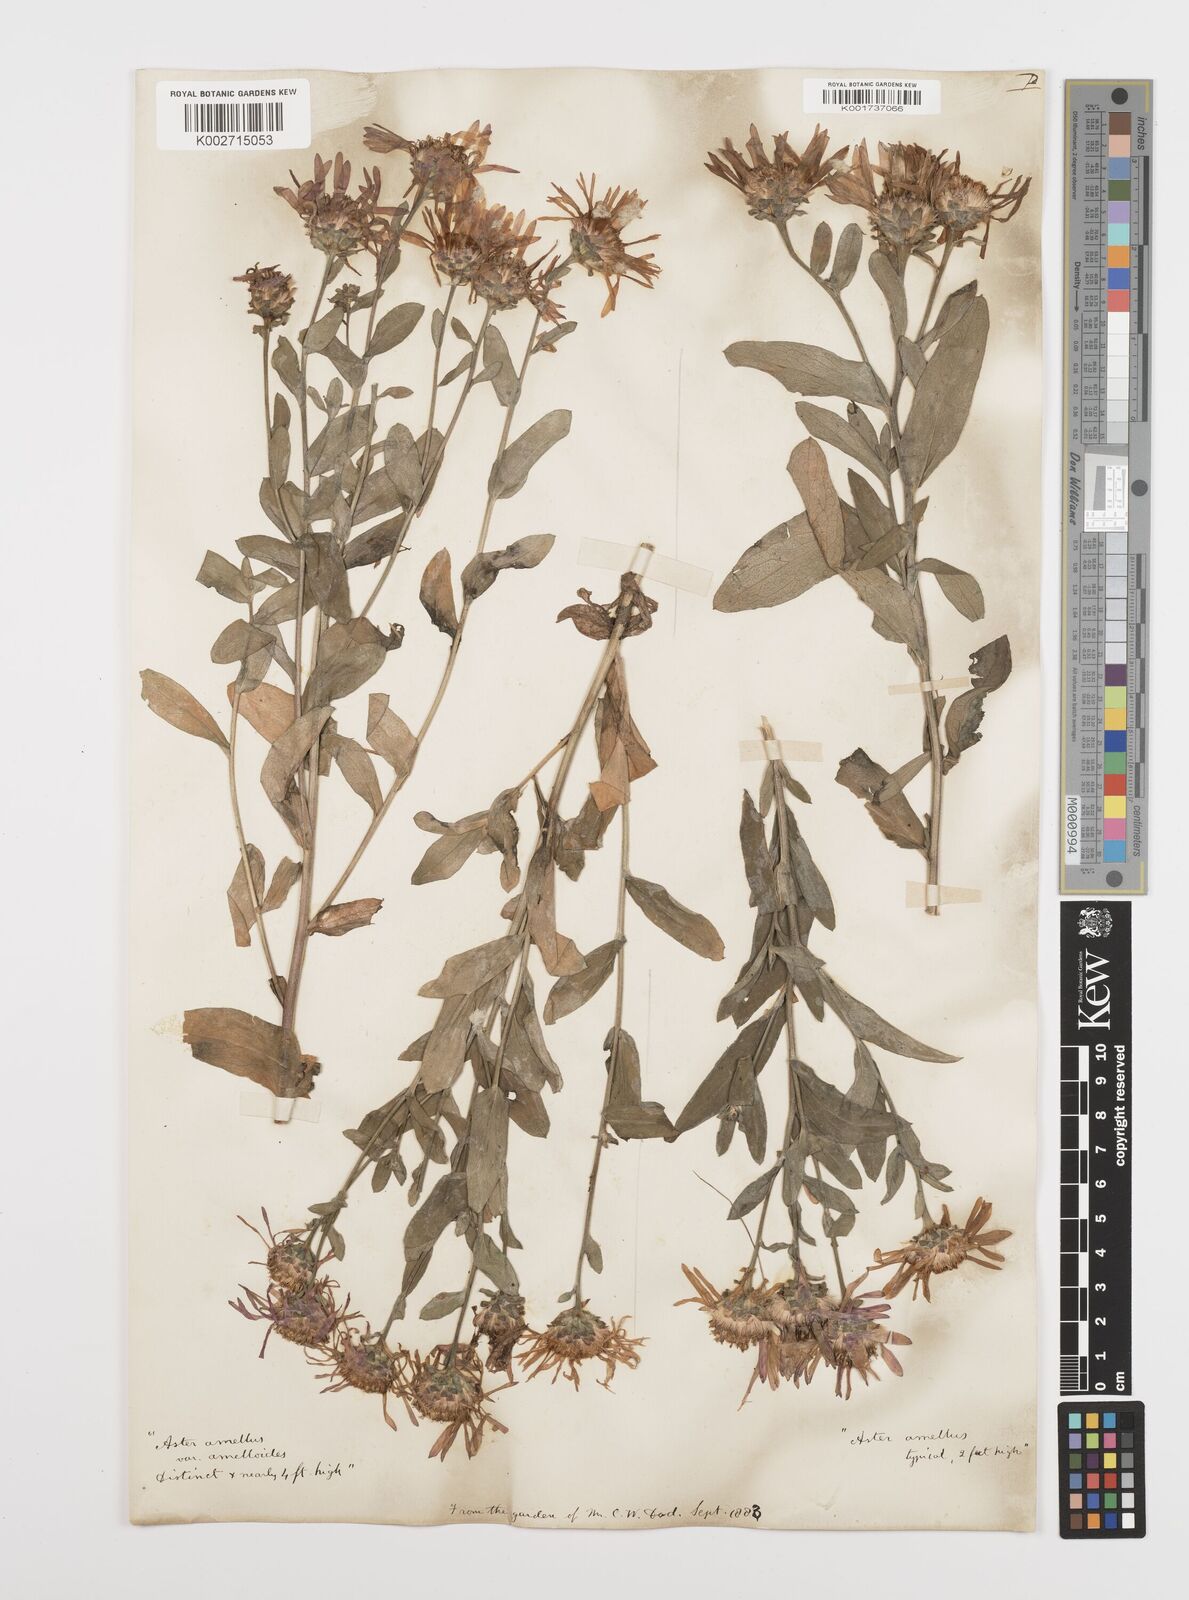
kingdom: Plantae
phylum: Tracheophyta
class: Magnoliopsida
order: Asterales
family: Asteraceae
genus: Aster
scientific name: Aster amellus
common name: European michaelmas daisy
